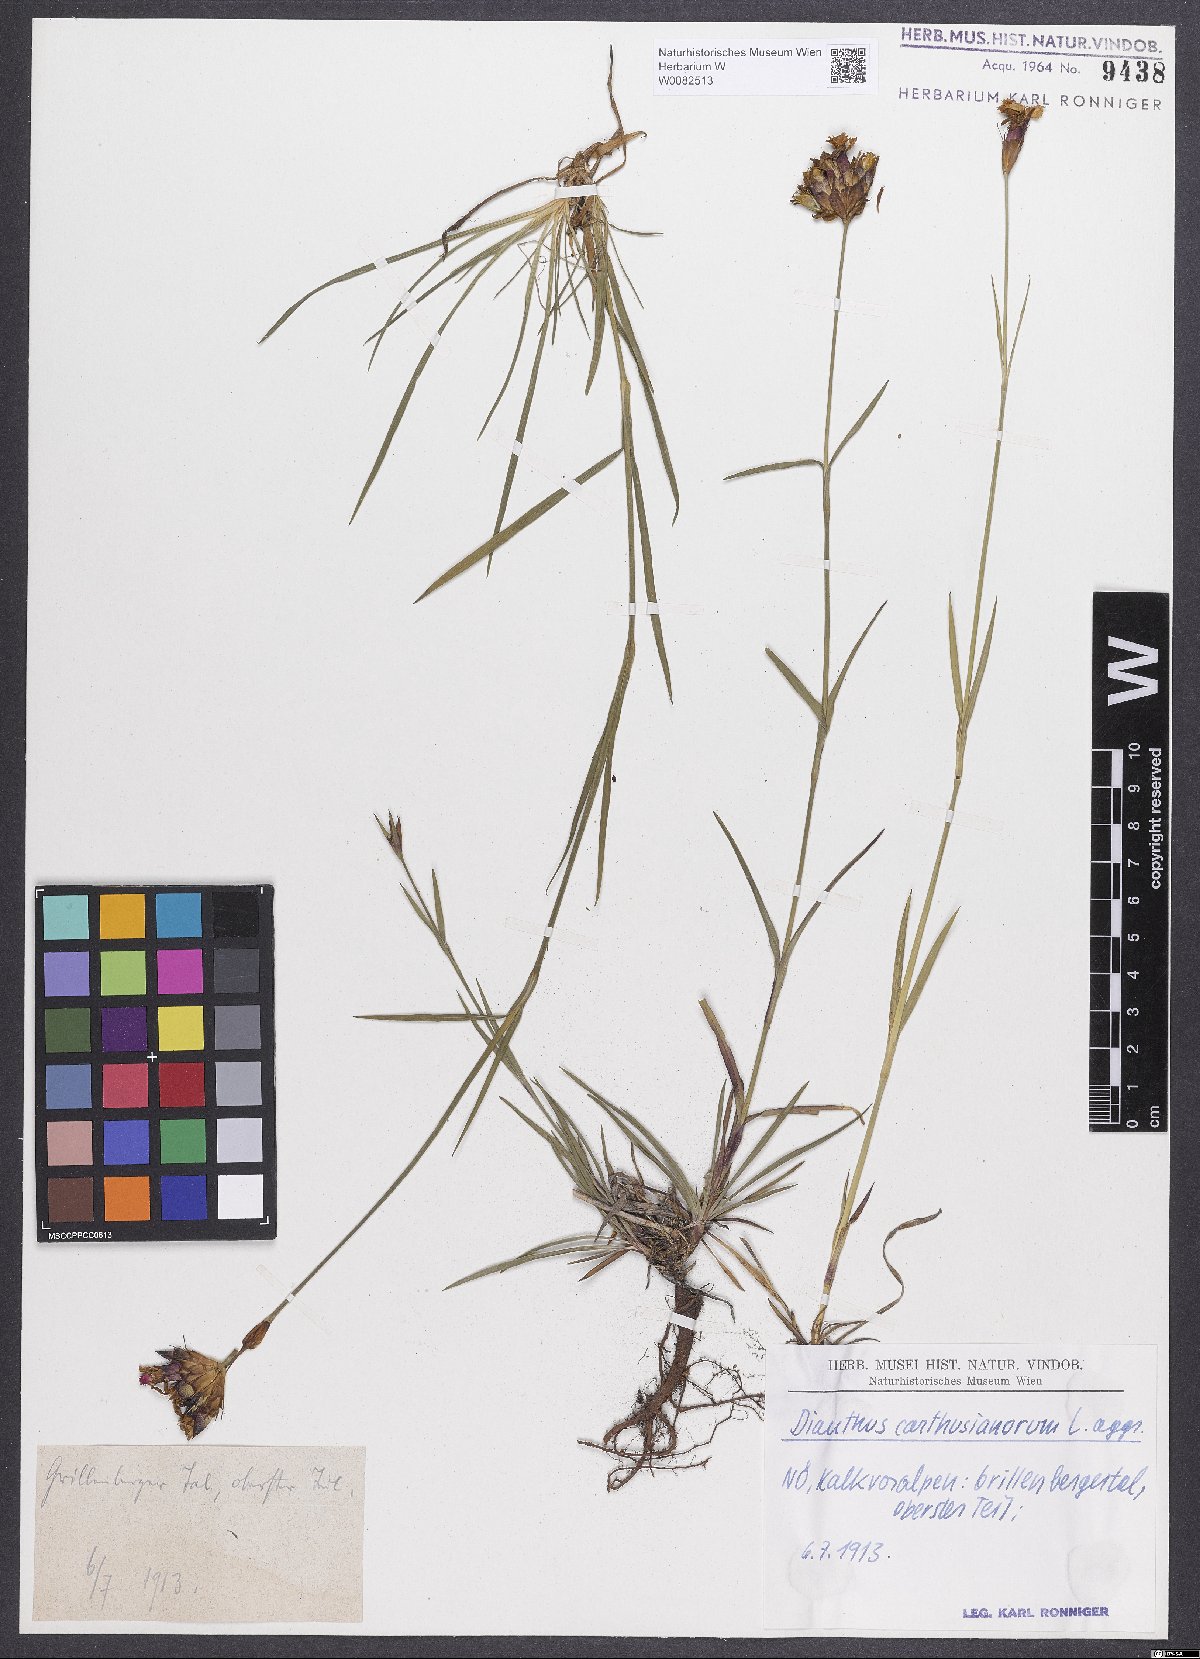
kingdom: Plantae
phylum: Tracheophyta
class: Magnoliopsida
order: Caryophyllales
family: Caryophyllaceae
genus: Dianthus
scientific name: Dianthus carthusianorum
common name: Carthusian pink
